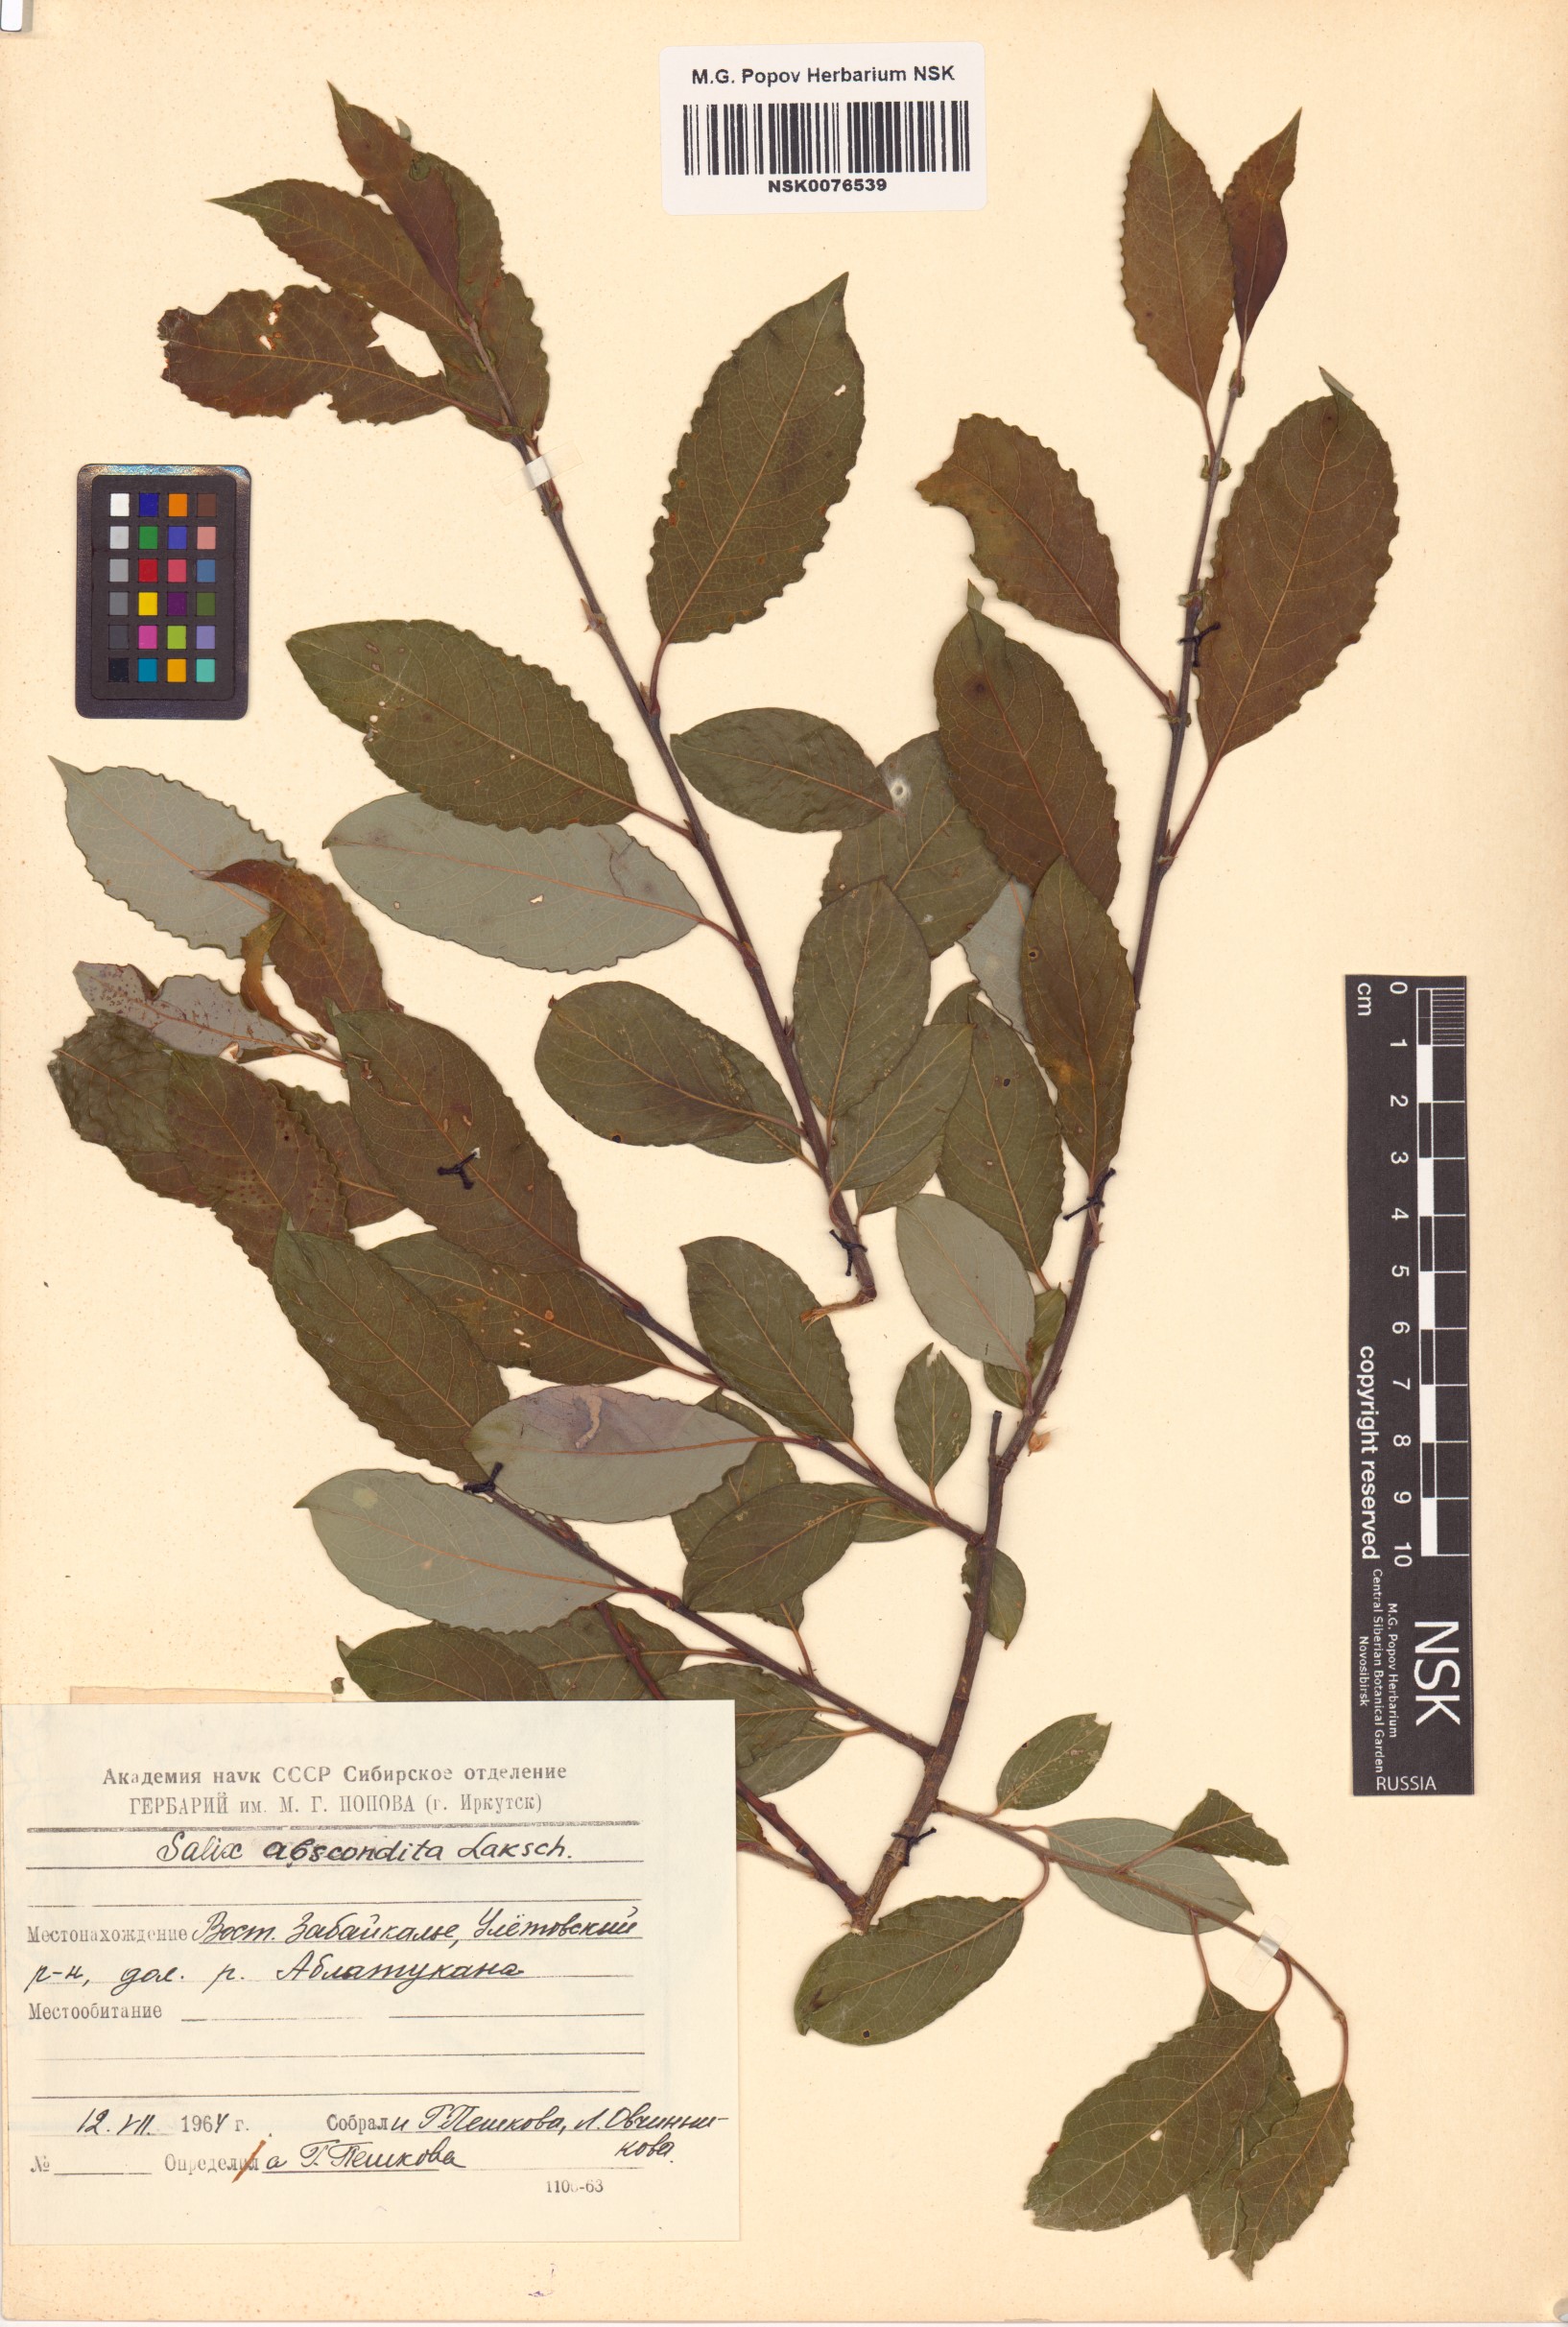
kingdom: Plantae
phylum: Tracheophyta
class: Magnoliopsida
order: Malpighiales
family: Salicaceae
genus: Salix
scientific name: Salix abscondita
